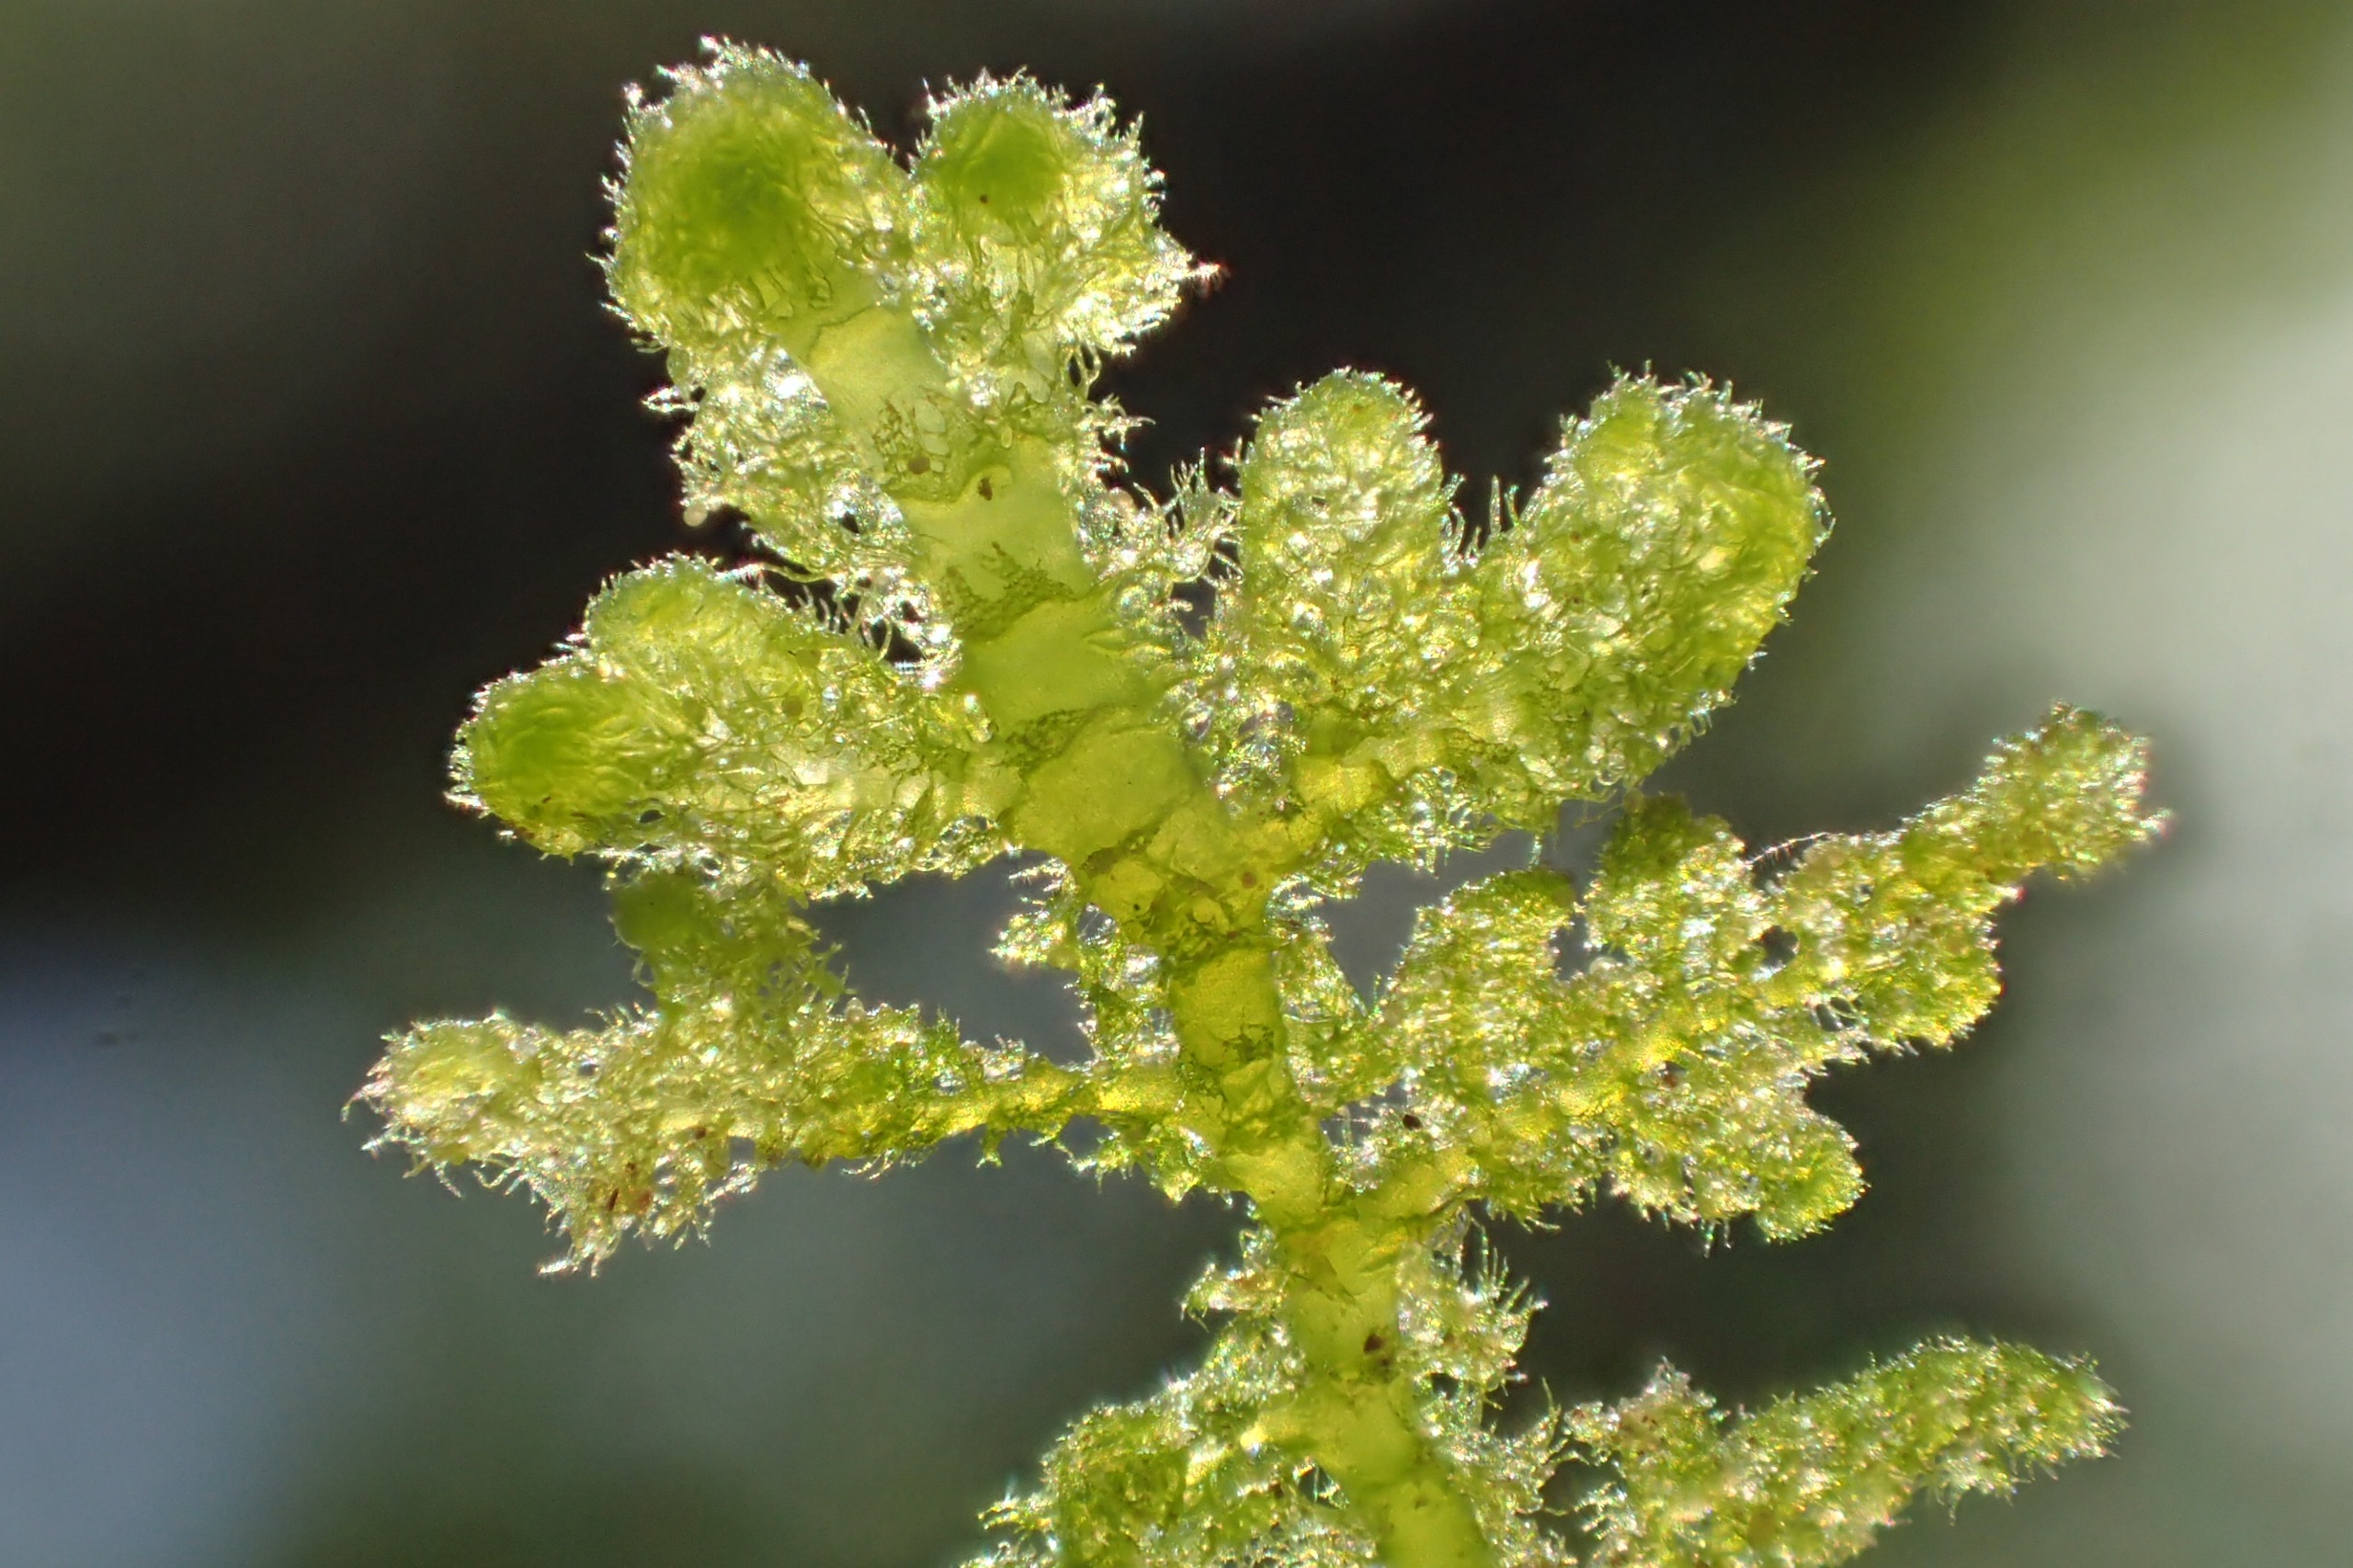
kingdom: Plantae
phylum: Marchantiophyta
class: Jungermanniopsida
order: Jungermanniales
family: Trichocoleaceae
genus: Trichocolea
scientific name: Trichocolea tomentella
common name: Bleg dunmos
